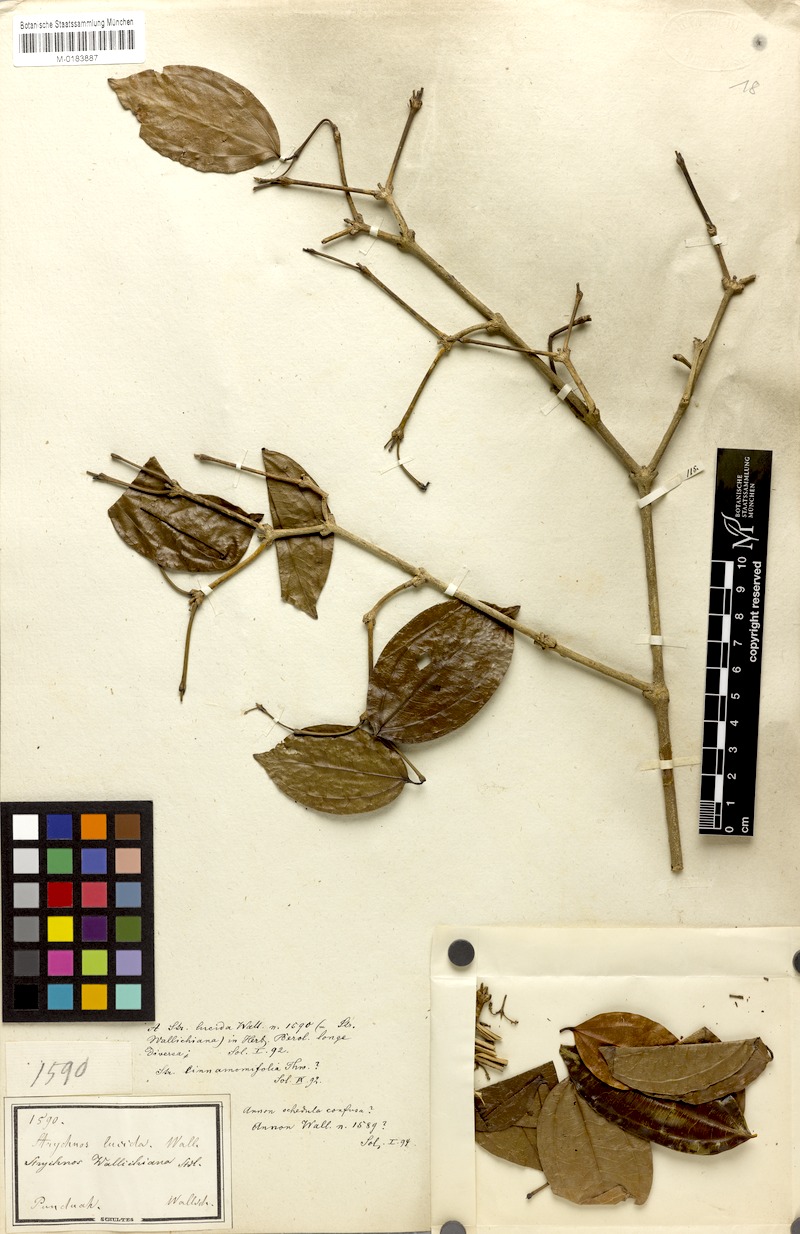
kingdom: Plantae
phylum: Tracheophyta
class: Magnoliopsida
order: Gentianales
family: Loganiaceae
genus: Strychnos
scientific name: Strychnos wallichiana
